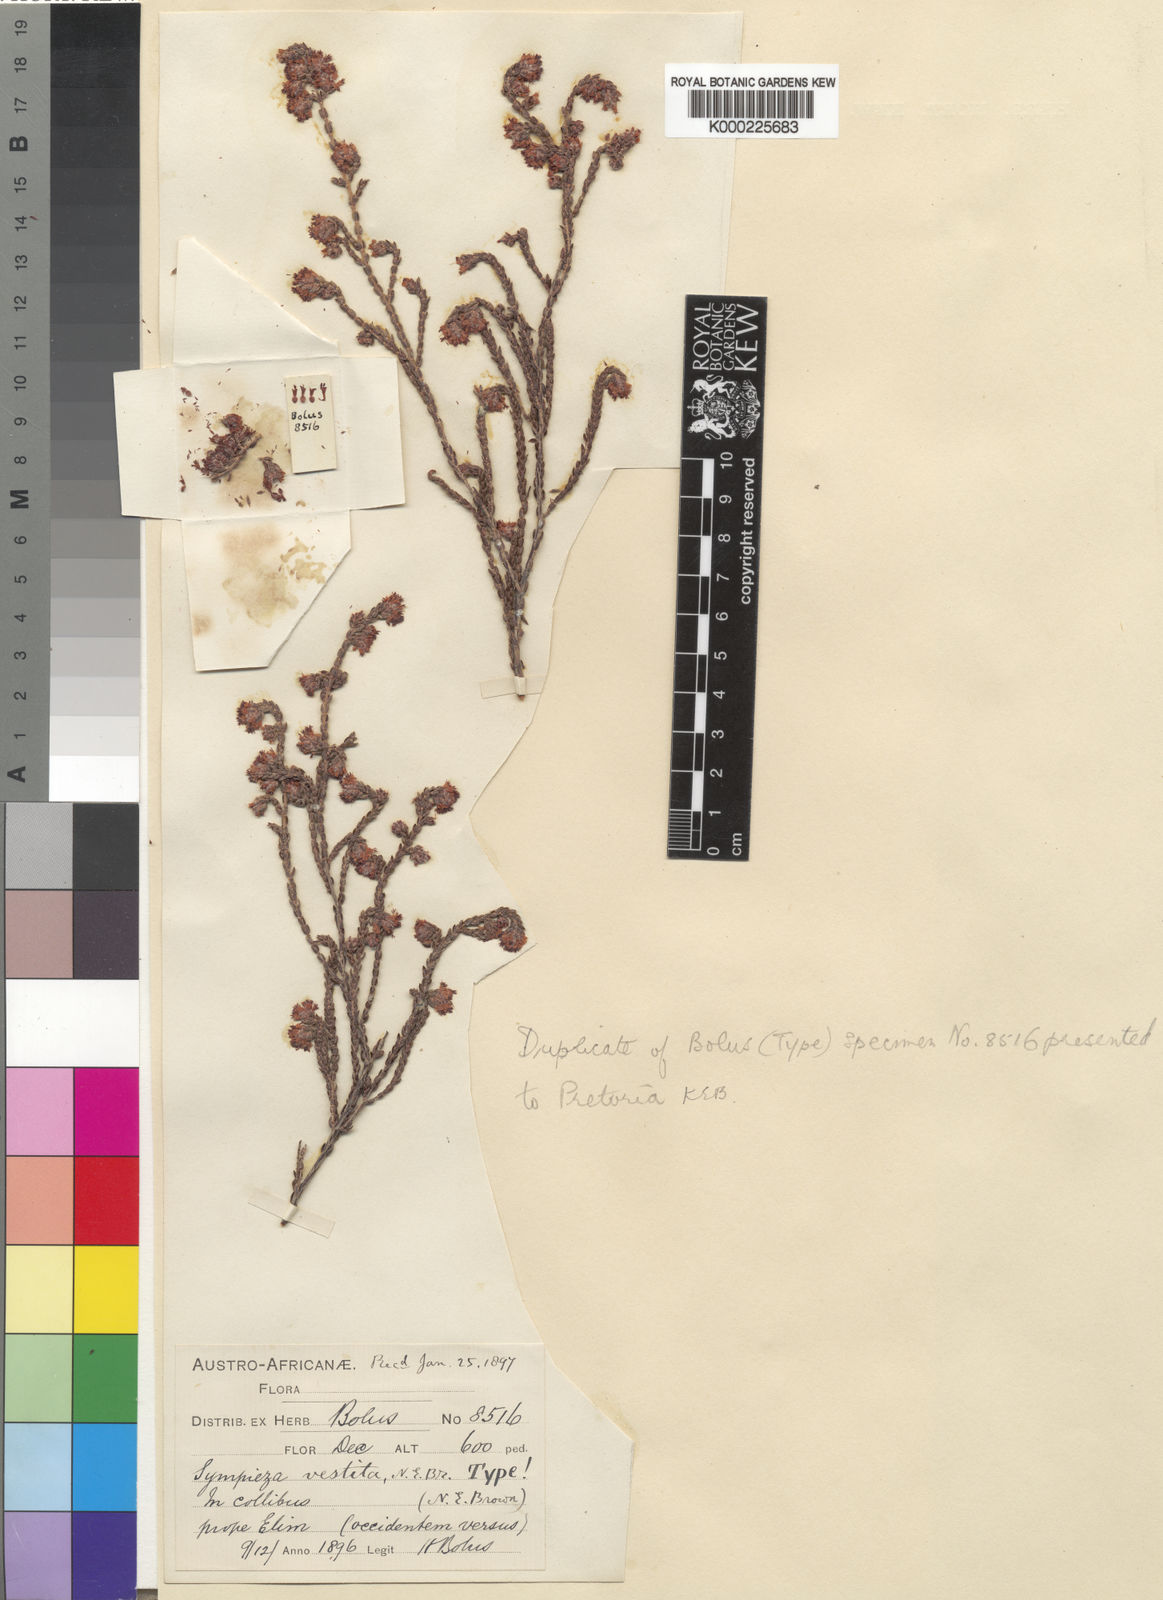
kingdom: Plantae
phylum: Tracheophyta
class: Magnoliopsida
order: Ericales
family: Ericaceae
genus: Erica
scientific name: Erica labialis
